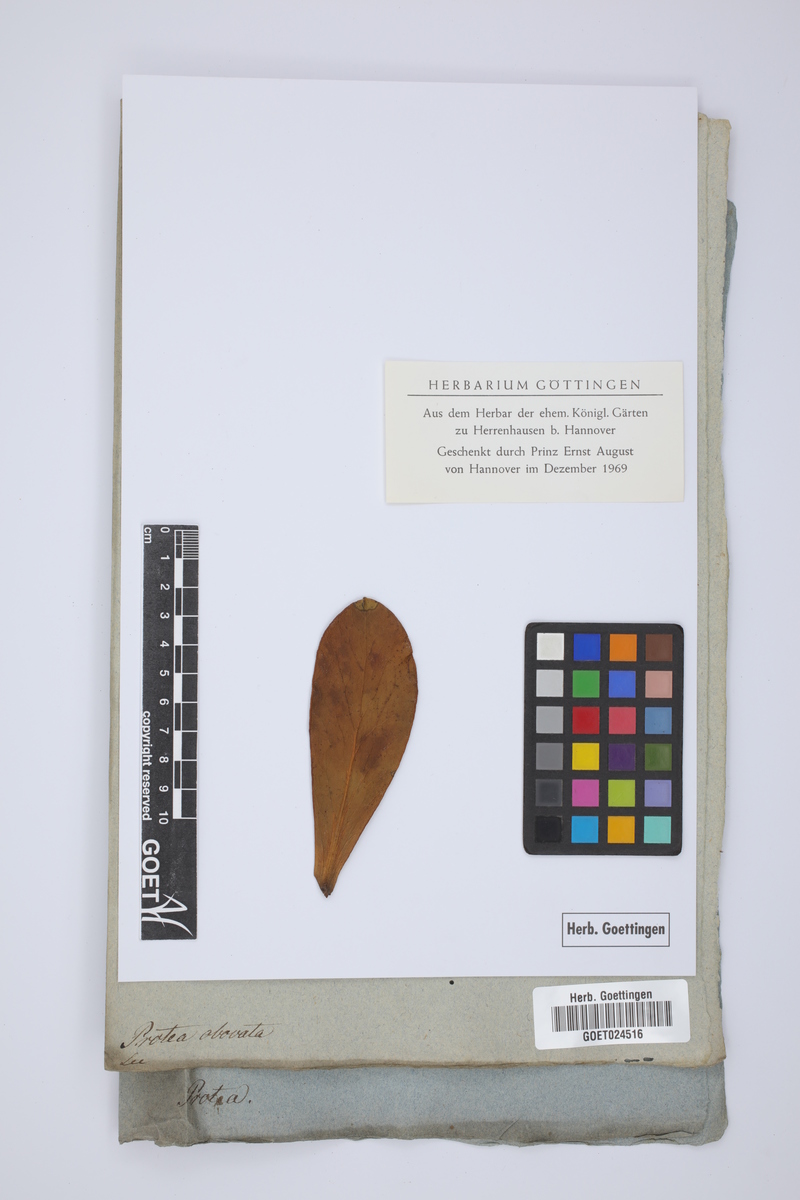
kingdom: Plantae
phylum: Tracheophyta
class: Magnoliopsida
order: Proteales
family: Proteaceae
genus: Serruria
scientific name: Serruria aitonii
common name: Marshmallow spiderhead
